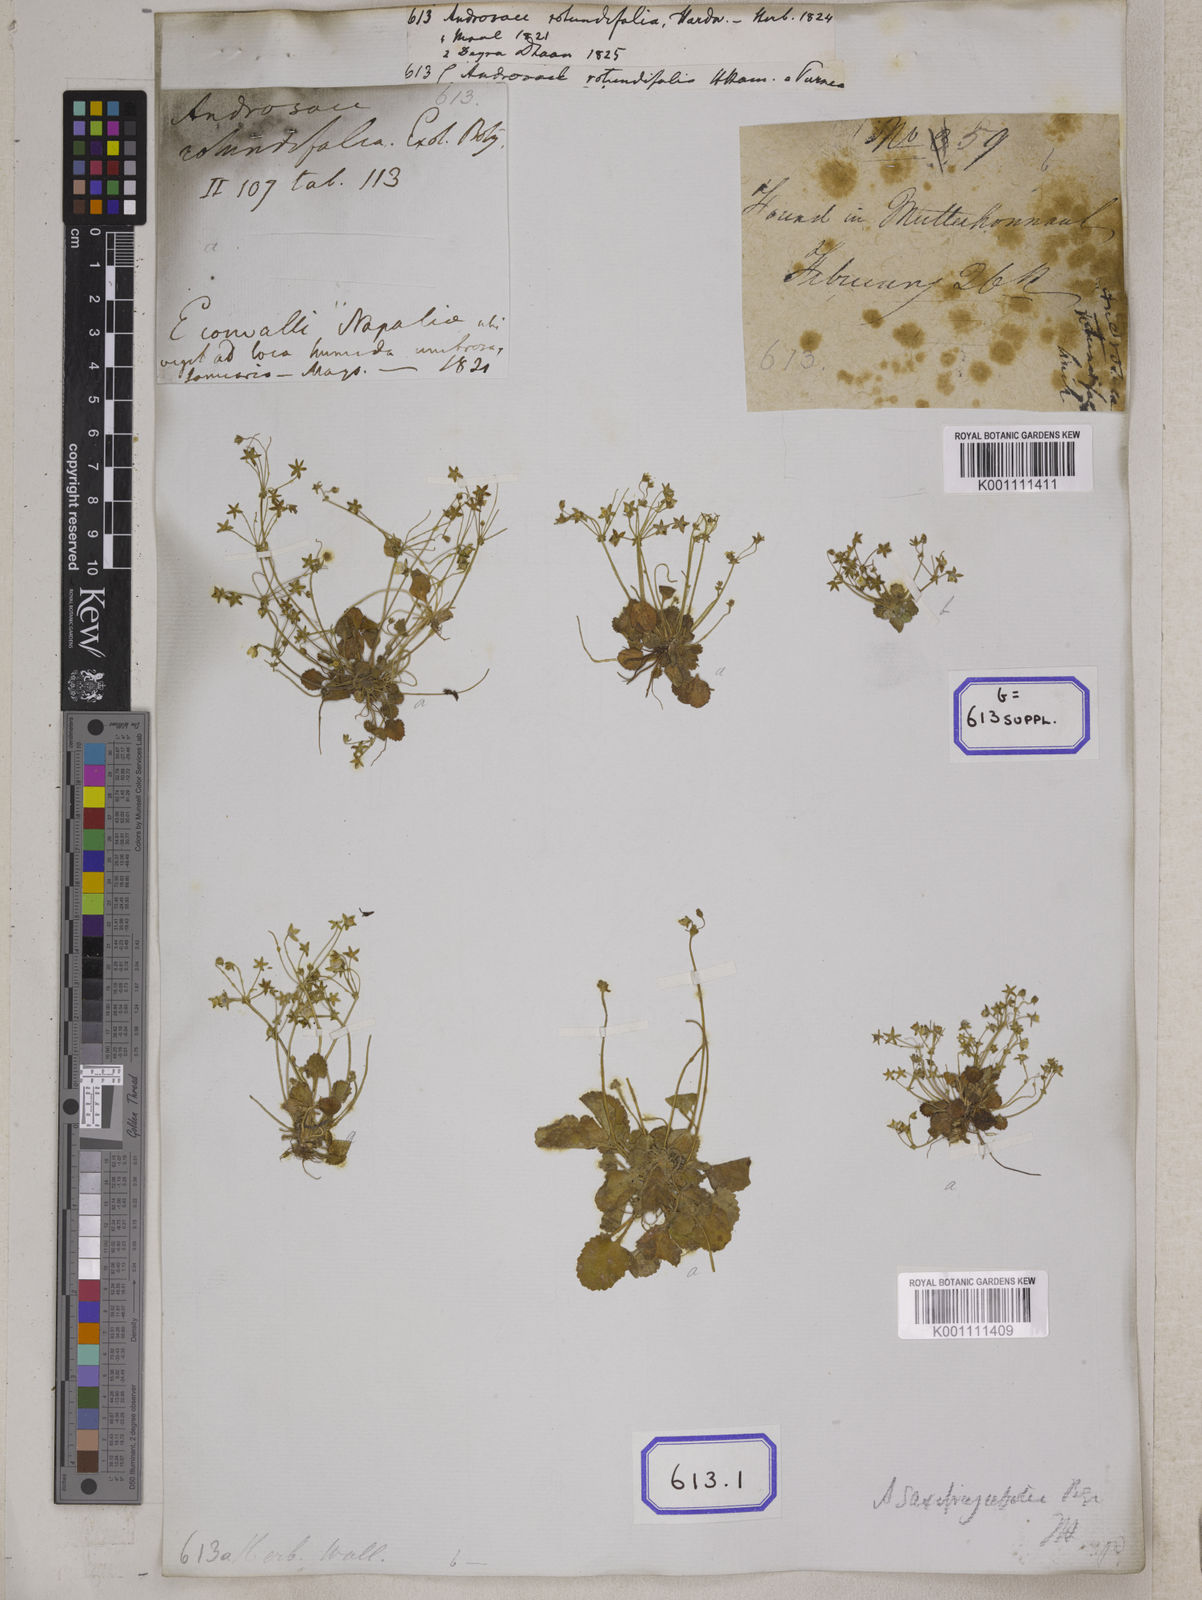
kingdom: Plantae
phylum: Tracheophyta
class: Magnoliopsida
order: Ericales
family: Primulaceae
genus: Androsace
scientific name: Androsace rotundifolia
